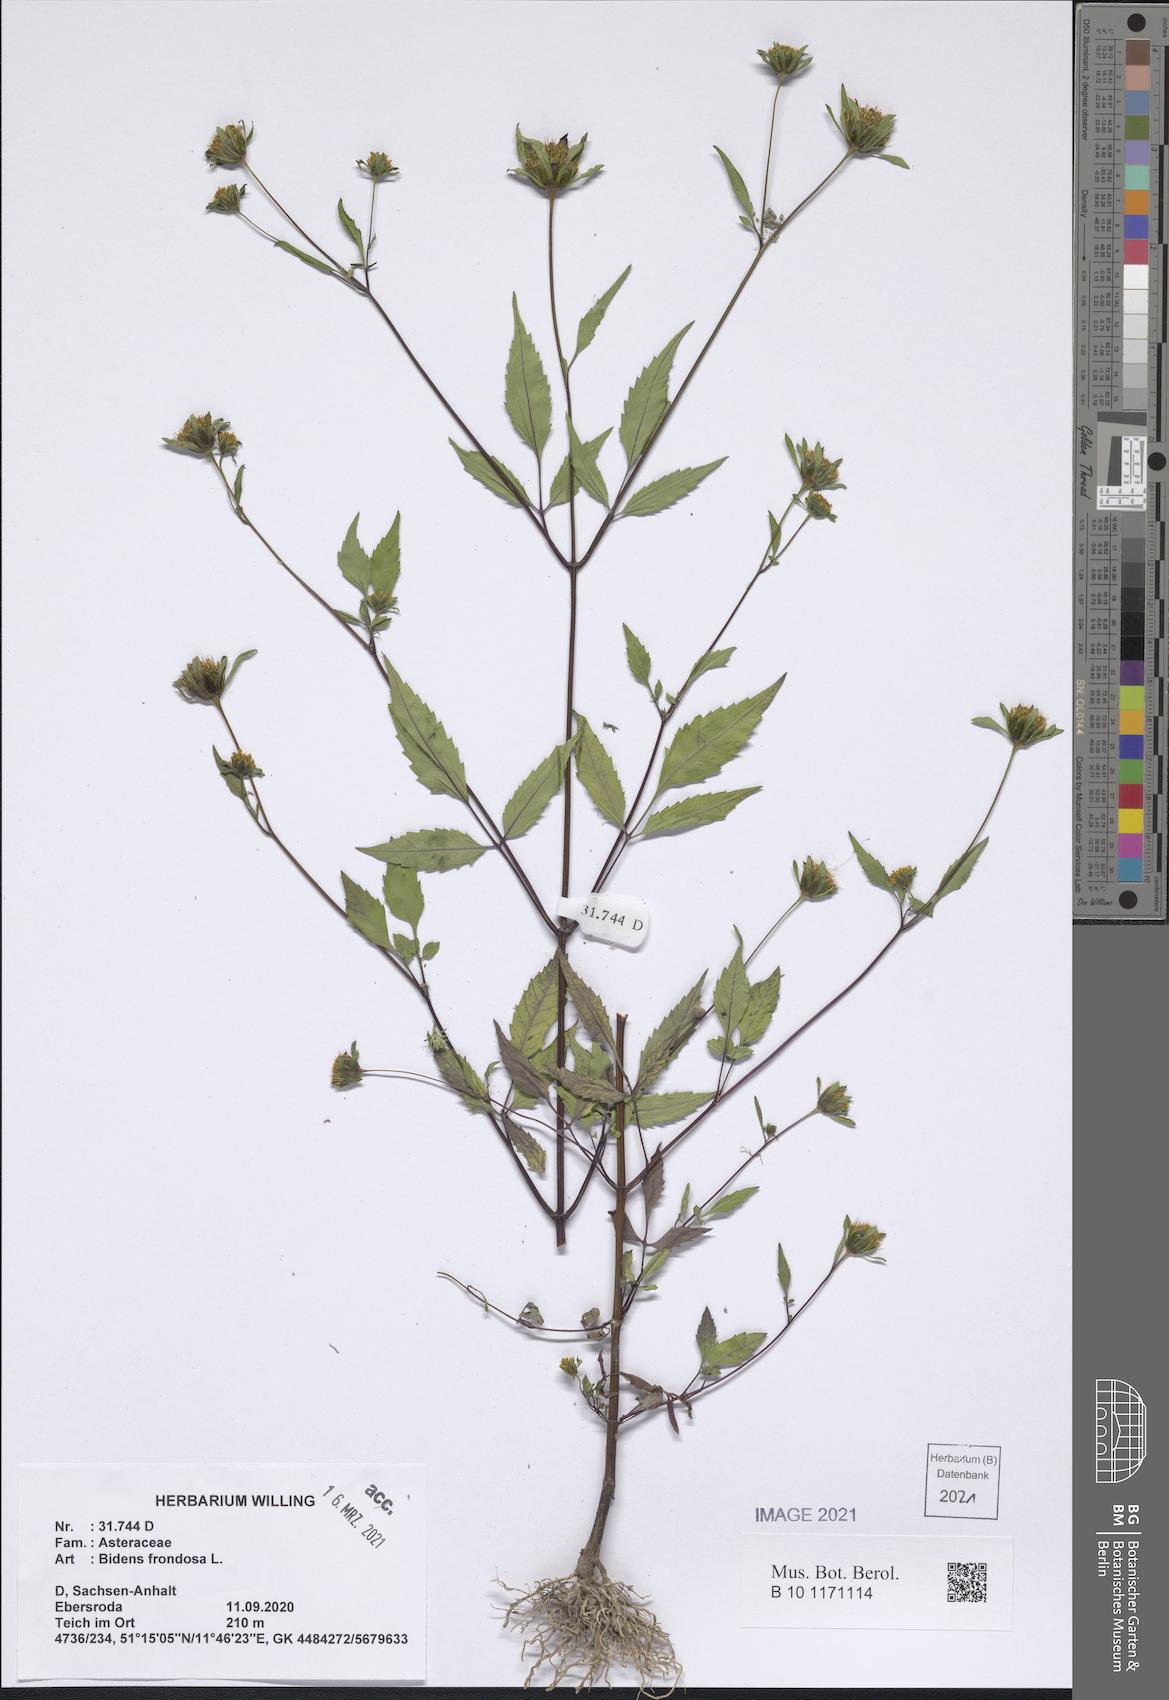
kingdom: Plantae
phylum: Tracheophyta
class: Magnoliopsida
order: Asterales
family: Asteraceae
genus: Bidens
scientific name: Bidens frondosa
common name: Beggarticks
